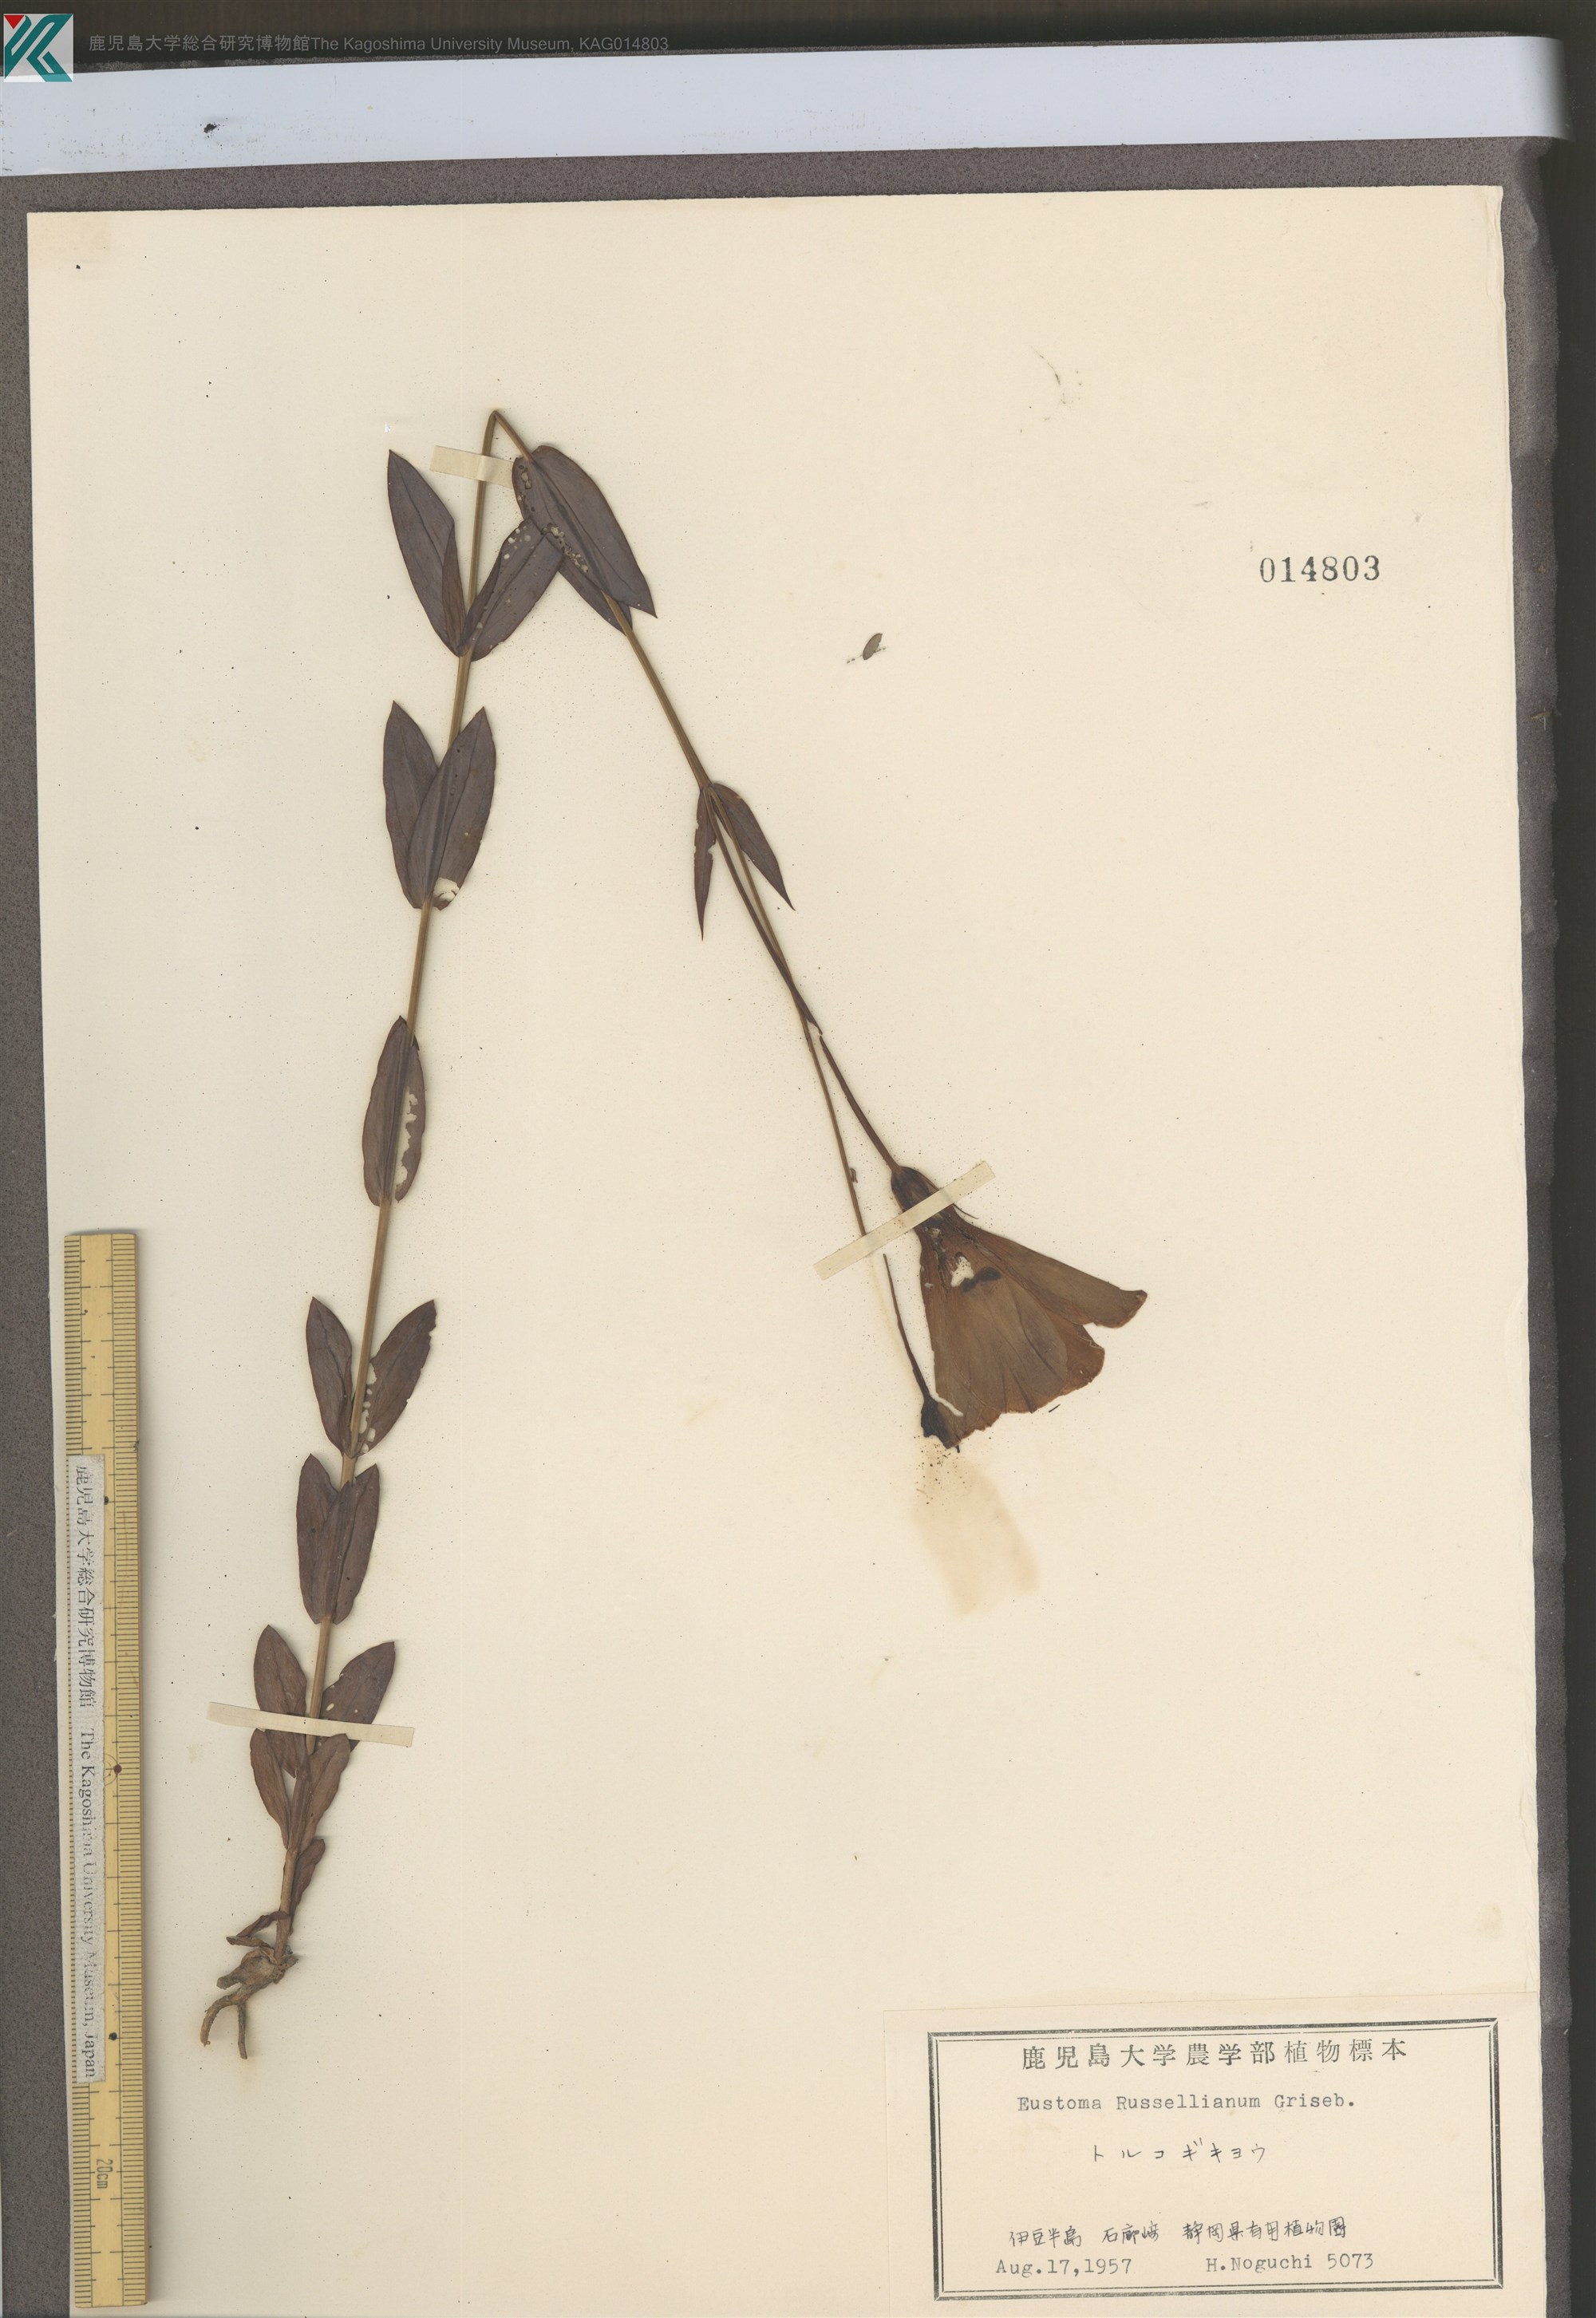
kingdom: Plantae
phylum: Tracheophyta
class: Magnoliopsida
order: Gentianales
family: Gentianaceae
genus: Eustoma
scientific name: Eustoma russellianum
